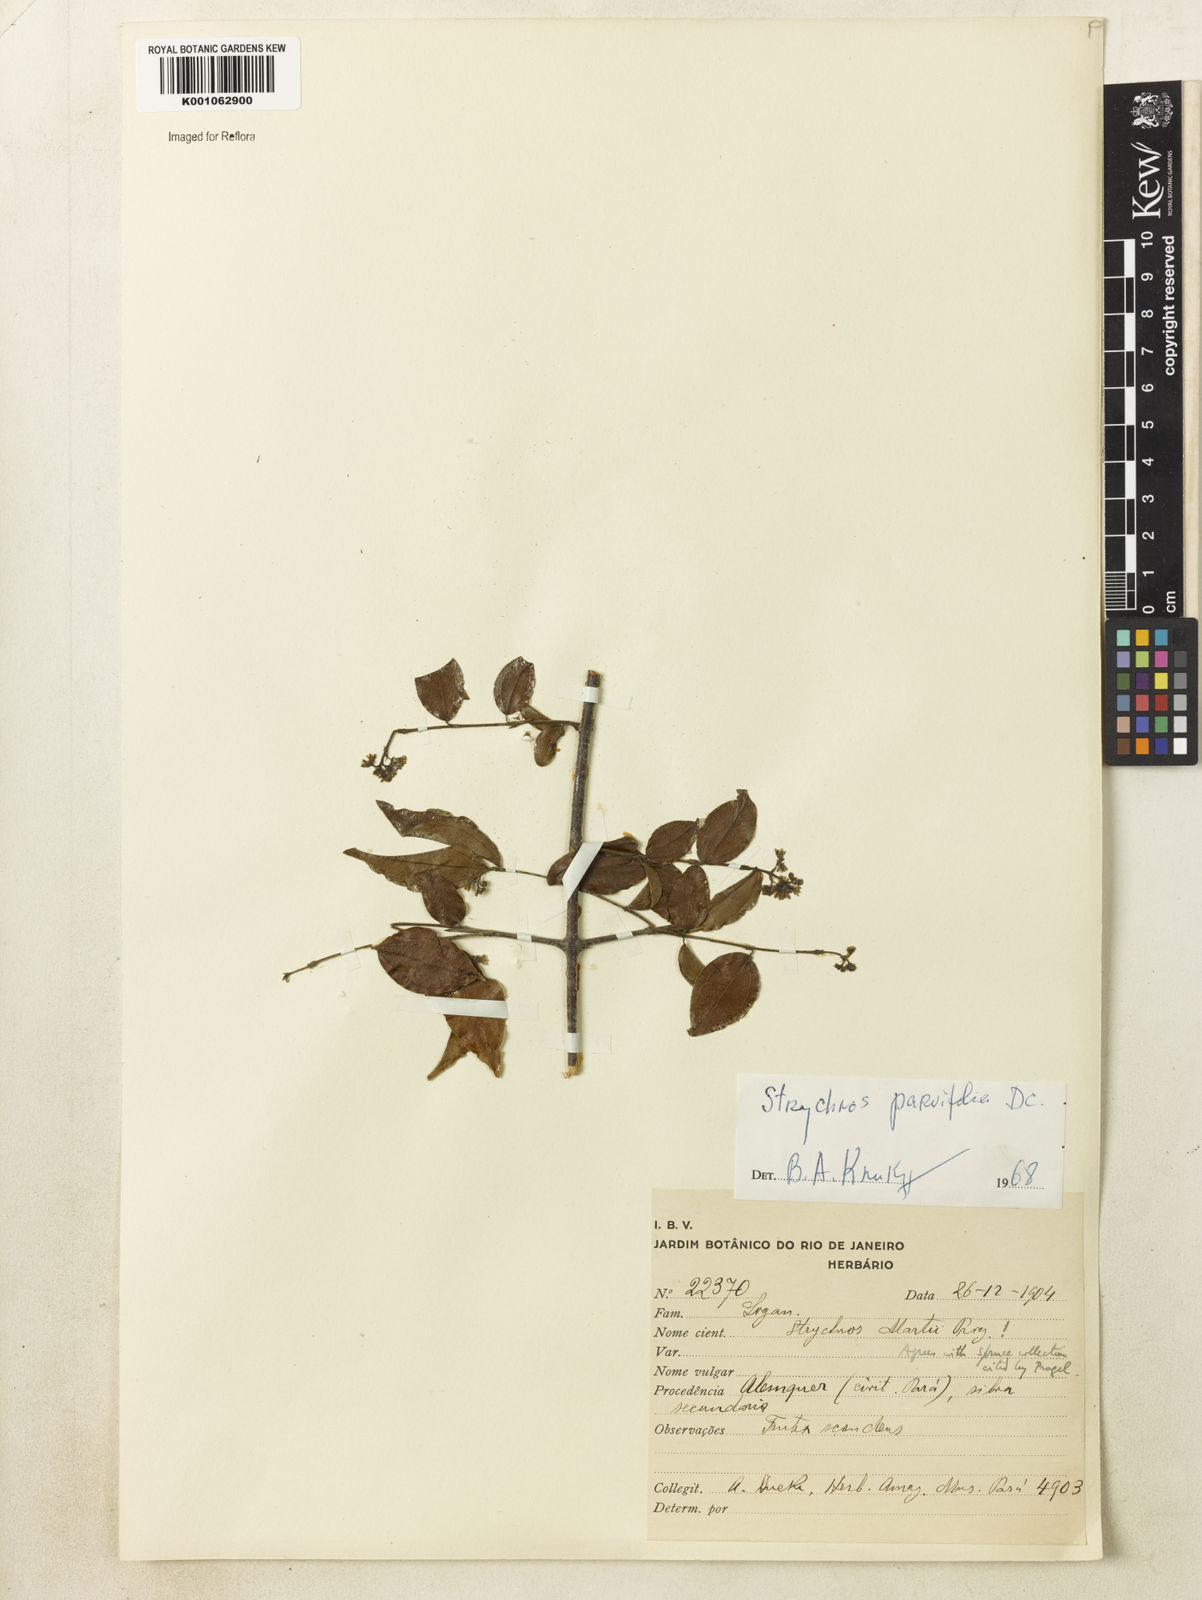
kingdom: Plantae
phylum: Tracheophyta
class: Magnoliopsida
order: Gentianales
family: Loganiaceae
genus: Strychnos
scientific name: Strychnos parvifolia
